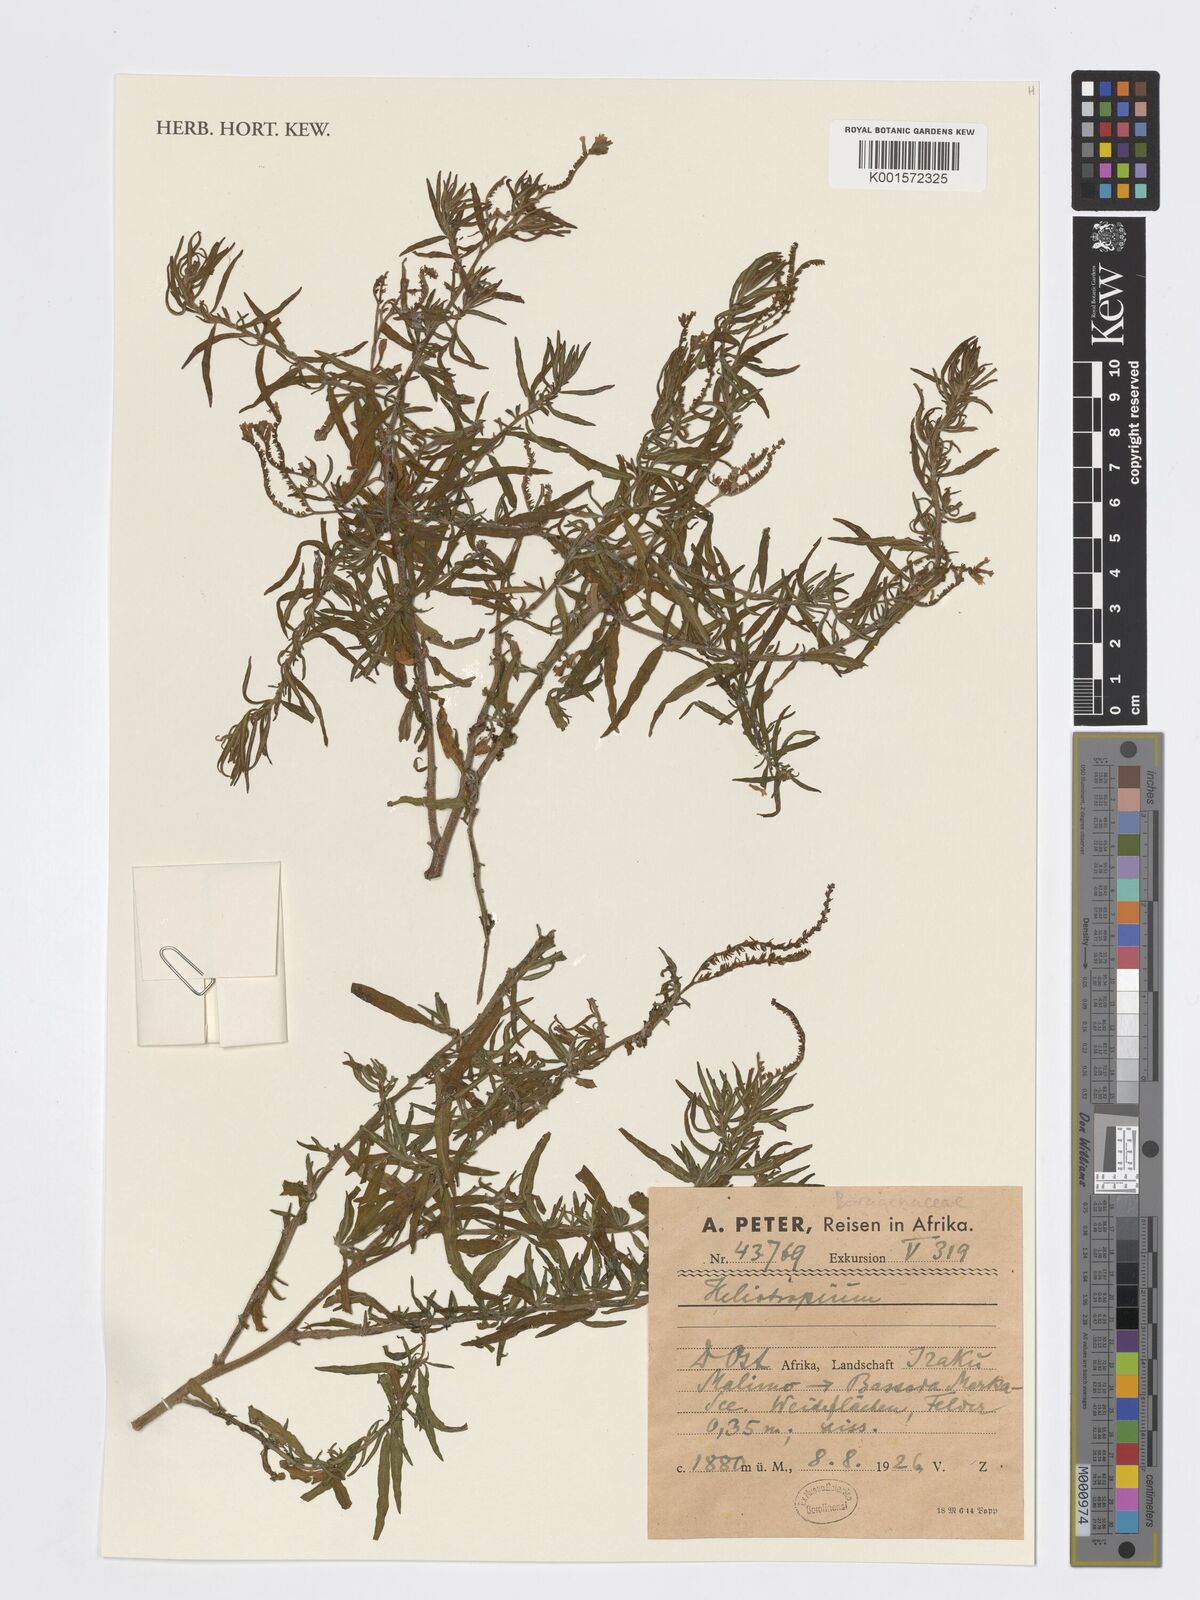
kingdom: Plantae
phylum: Tracheophyta
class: Magnoliopsida
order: Boraginales
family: Heliotropiaceae
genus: Heliotropium
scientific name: Heliotropium
